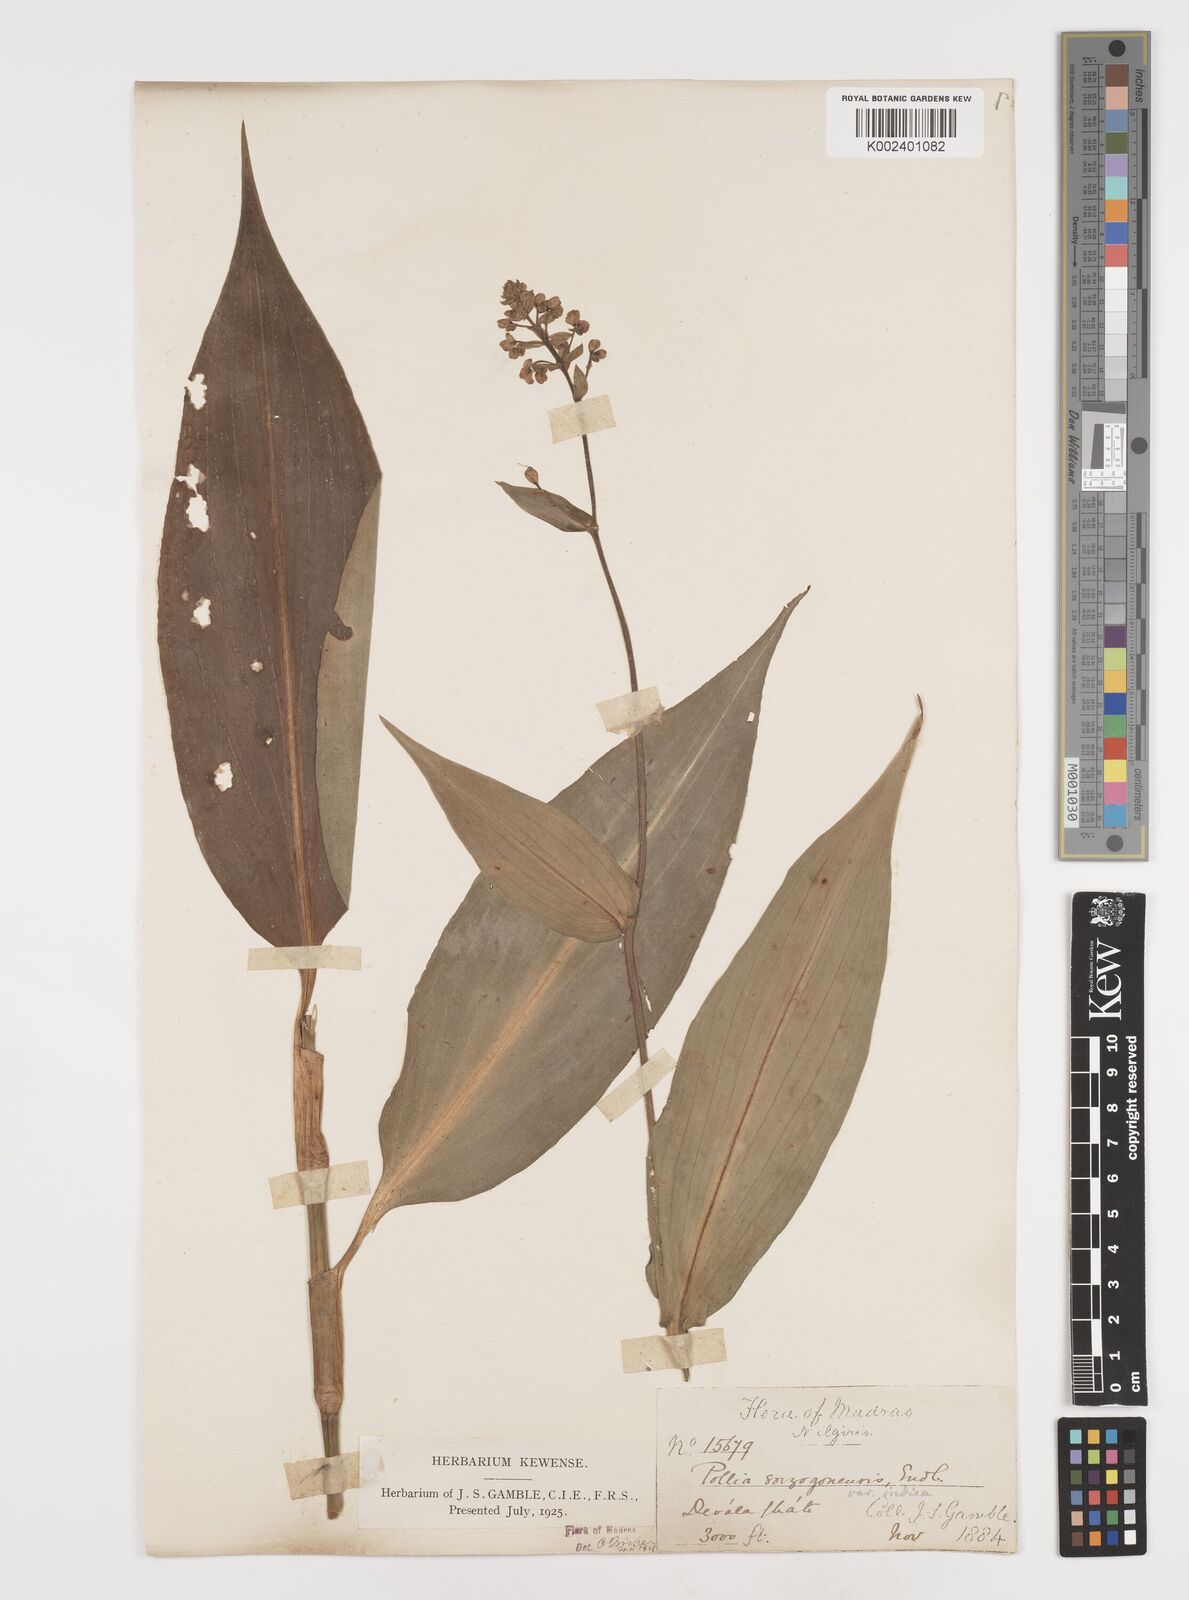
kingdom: Plantae
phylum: Tracheophyta
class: Liliopsida
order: Commelinales
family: Commelinaceae
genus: Pollia
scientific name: Pollia secundiflora
